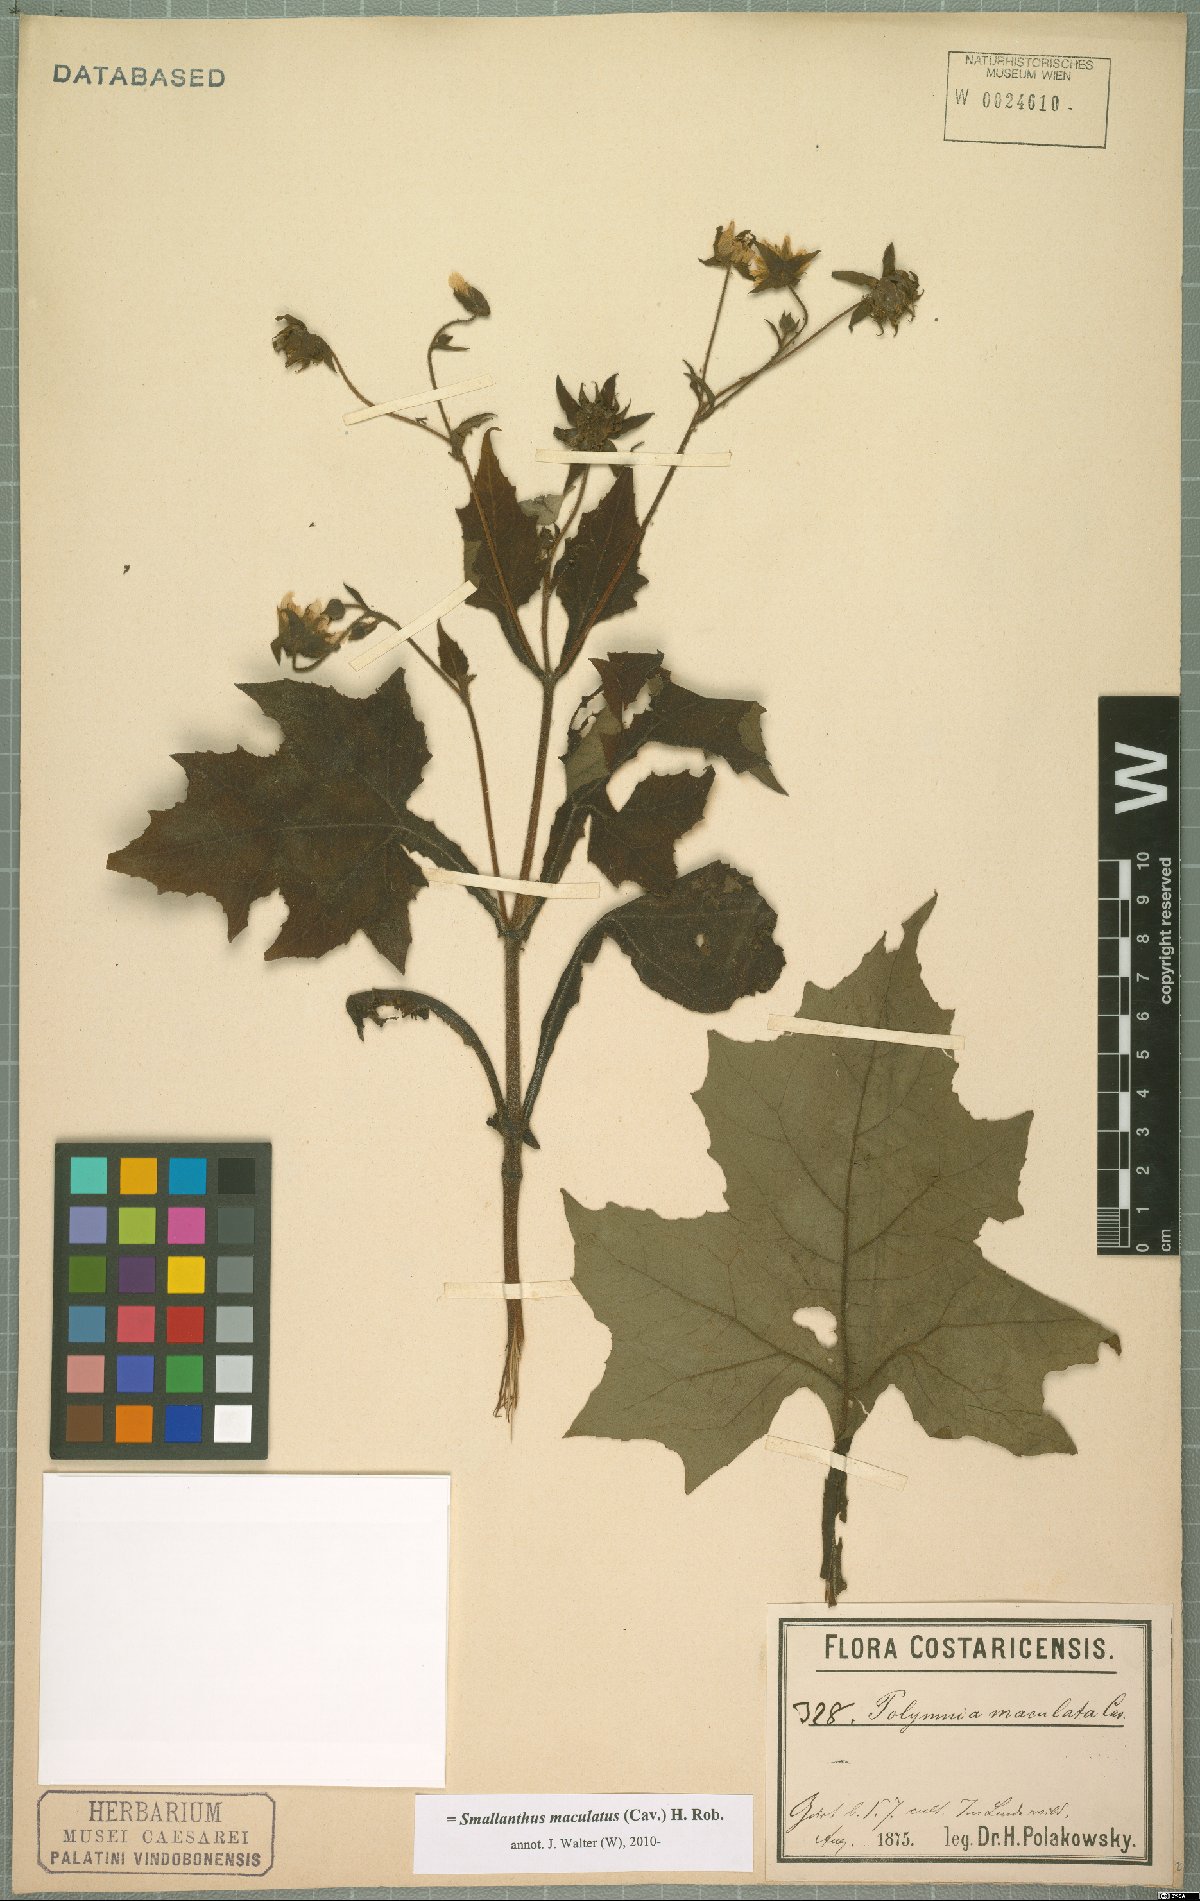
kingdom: Plantae
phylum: Tracheophyta
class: Magnoliopsida
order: Asterales
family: Asteraceae
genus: Smallanthus
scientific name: Smallanthus maculatus
